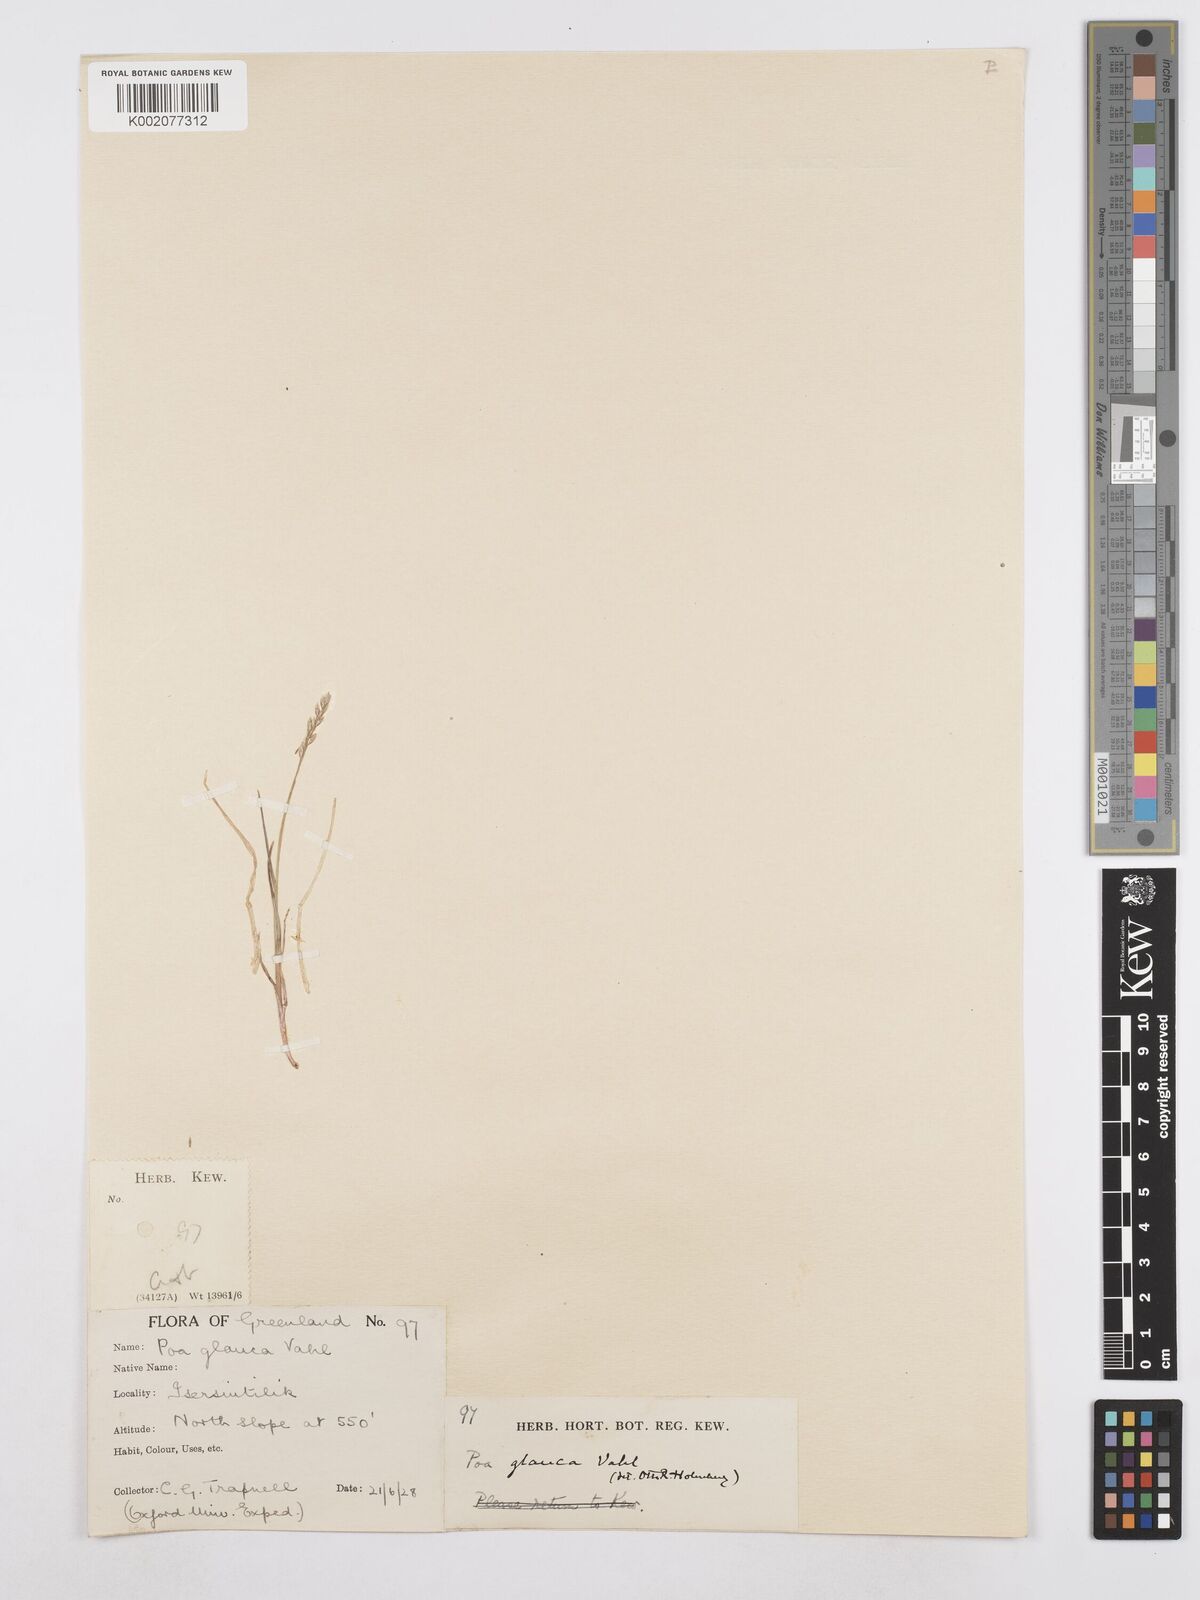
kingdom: Plantae
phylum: Tracheophyta
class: Liliopsida
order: Poales
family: Poaceae
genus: Poa
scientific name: Poa glauca
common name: Glaucous bluegrass
